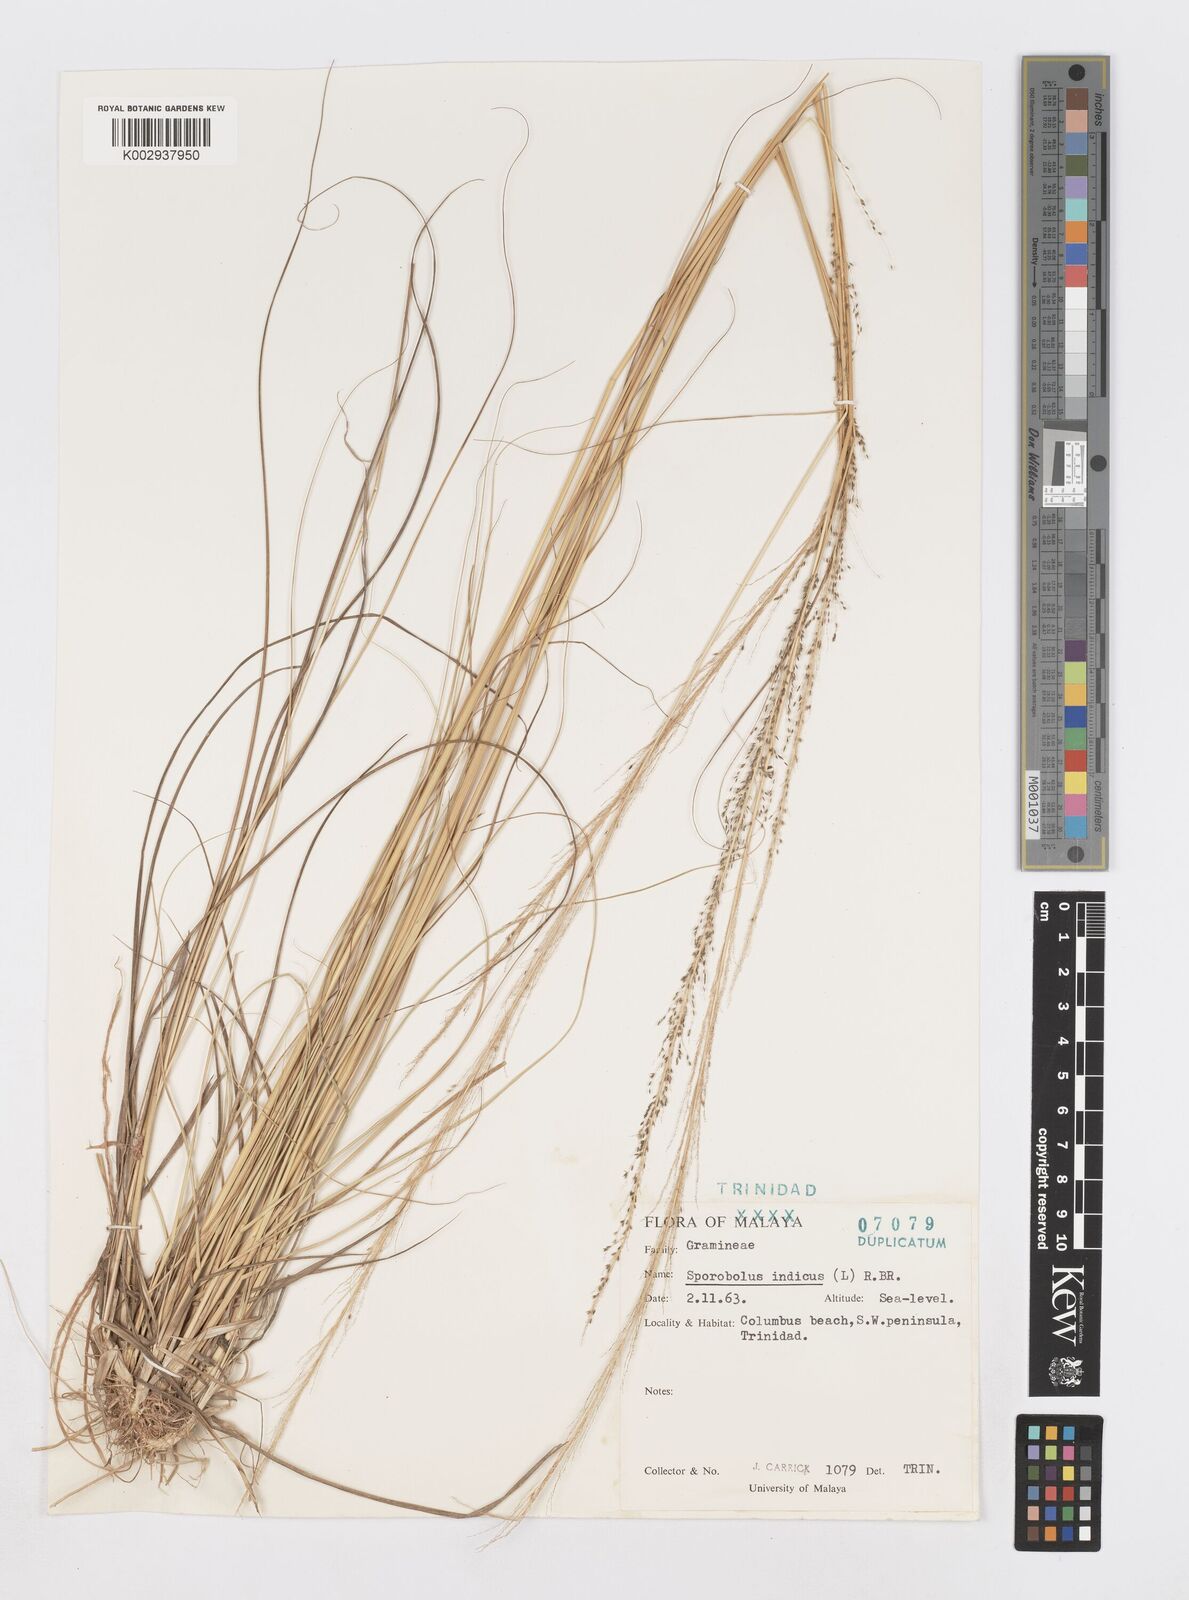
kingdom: Plantae
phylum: Tracheophyta
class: Liliopsida
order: Poales
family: Poaceae
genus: Sporobolus
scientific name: Sporobolus pyramidalis
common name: West indian dropseed
